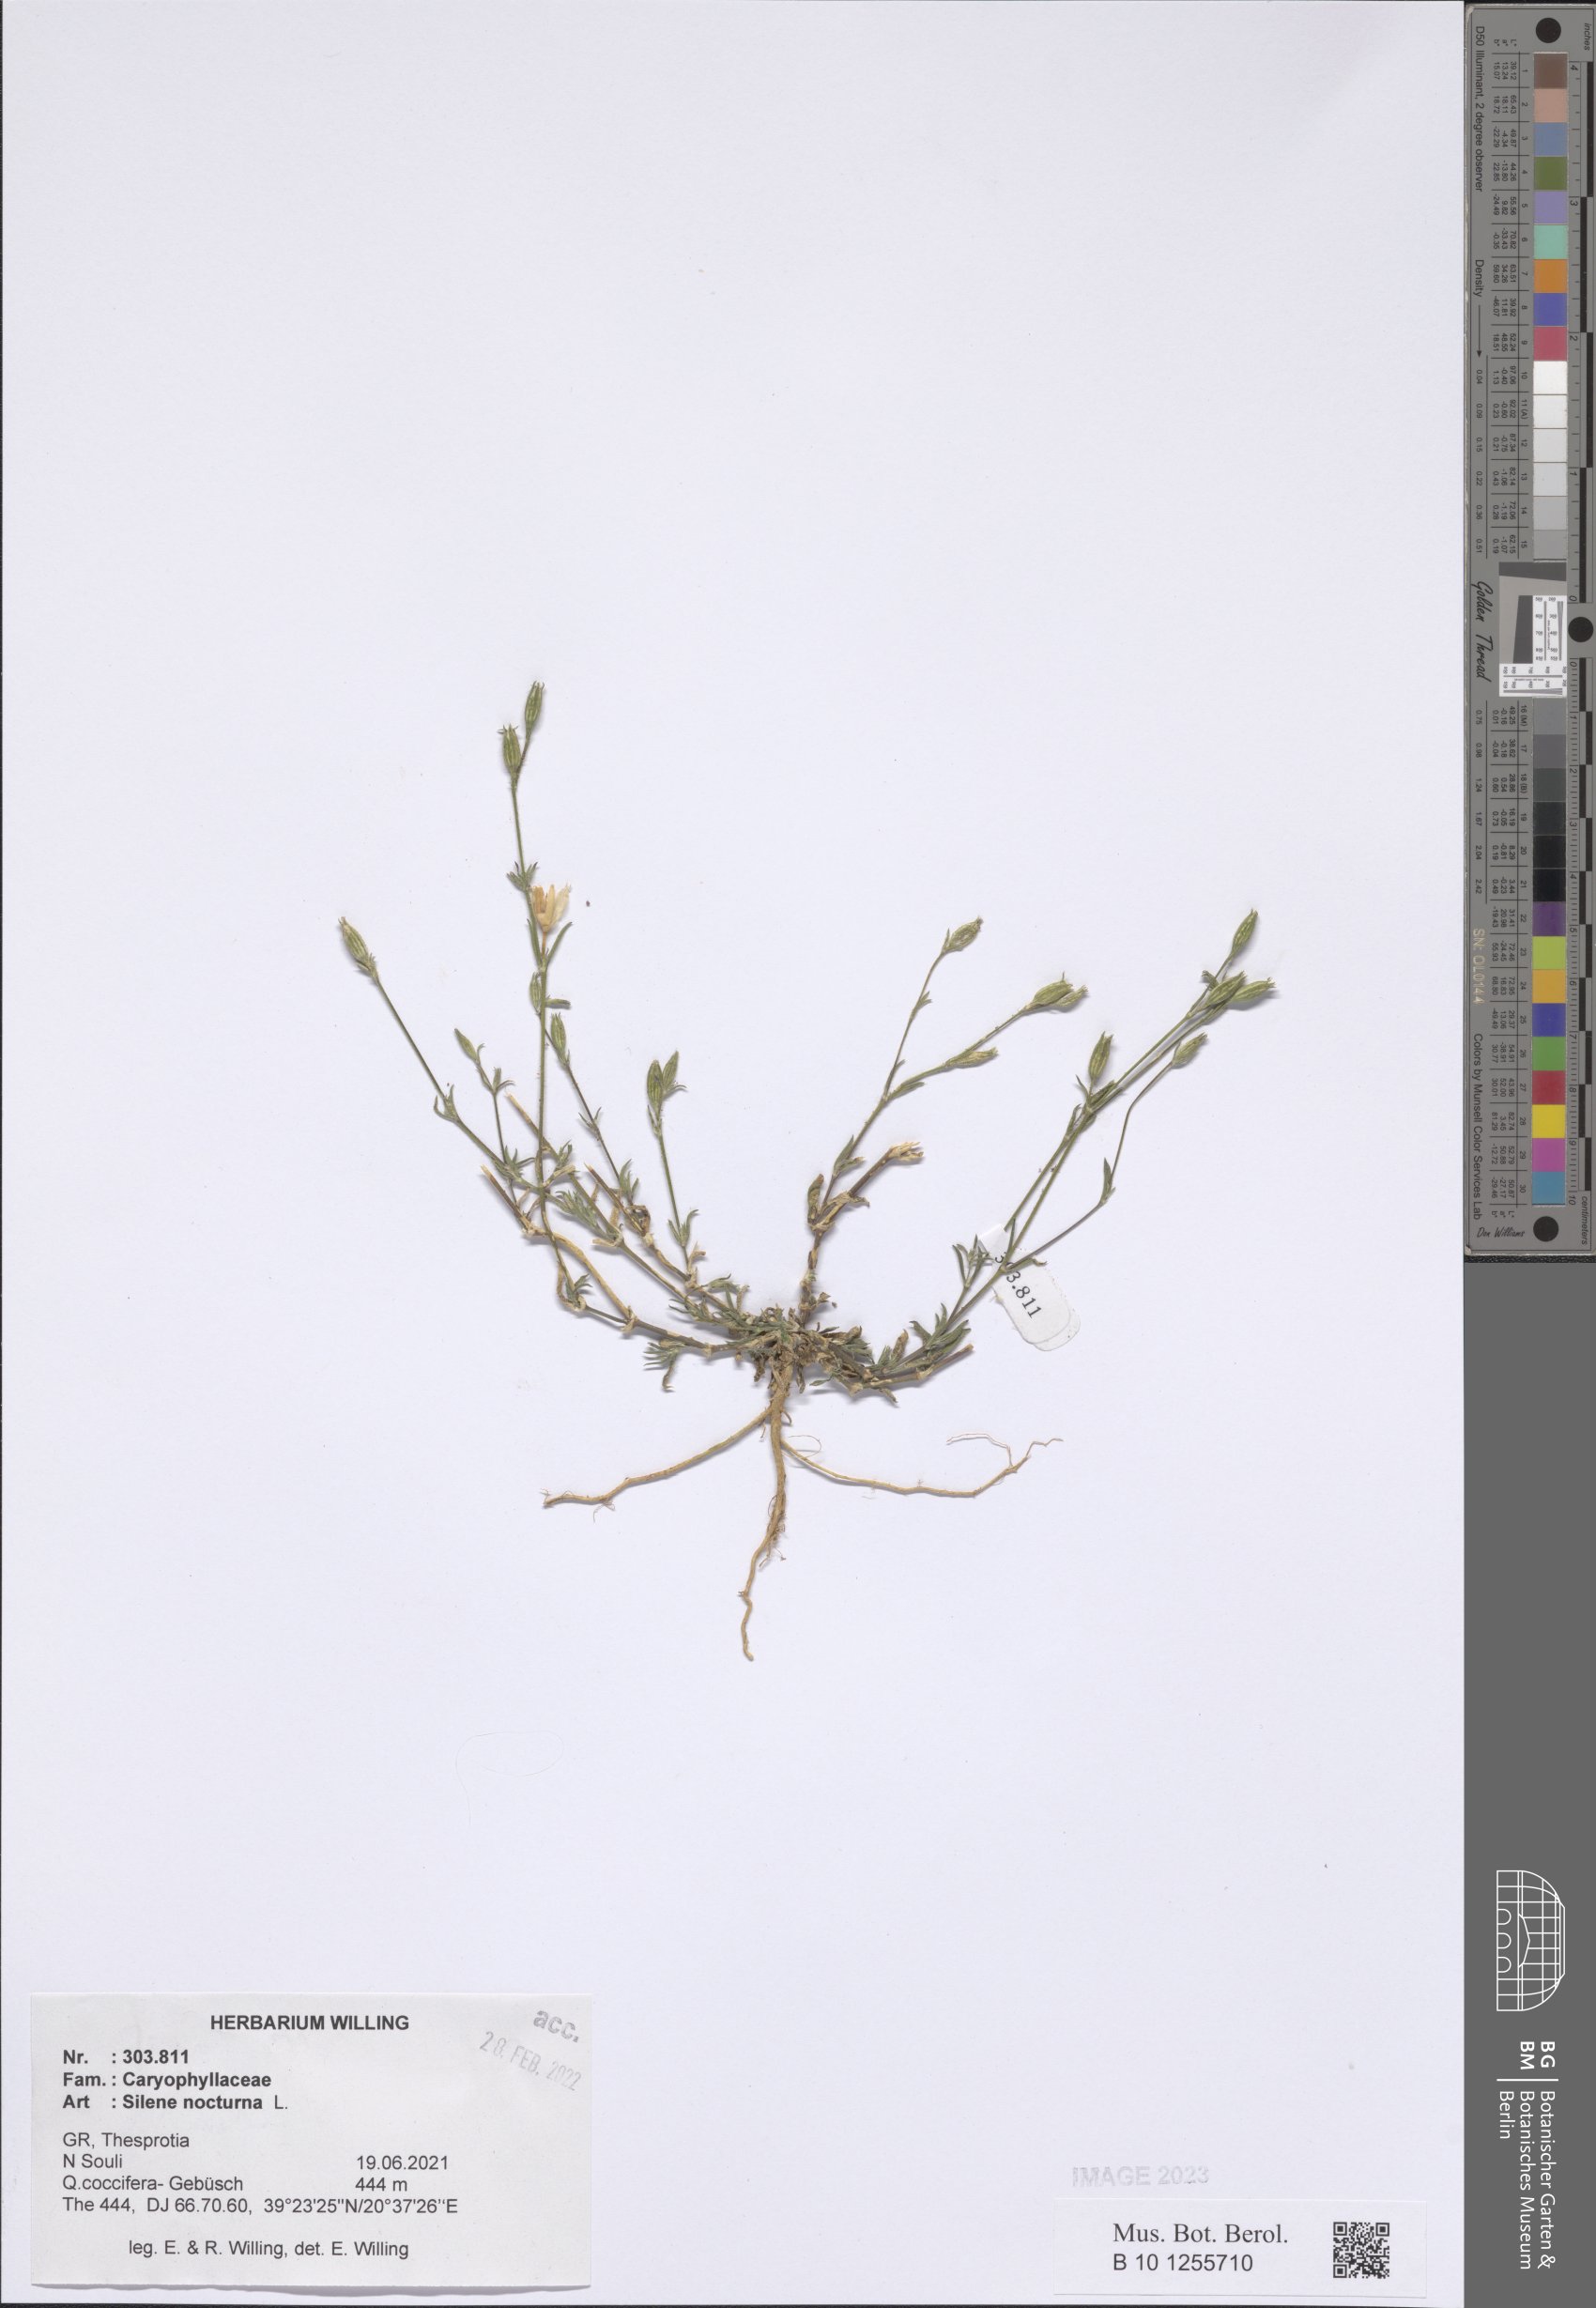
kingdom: Plantae
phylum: Tracheophyta
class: Magnoliopsida
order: Caryophyllales
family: Caryophyllaceae
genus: Silene
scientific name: Silene nocturna
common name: Mediterranean catchfly
